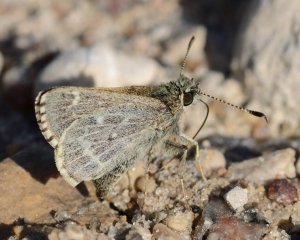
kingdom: Animalia
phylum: Arthropoda
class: Insecta
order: Lepidoptera
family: Hesperiidae
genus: Mastor
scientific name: Mastor hegon
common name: Pepper and Salt Skipper
